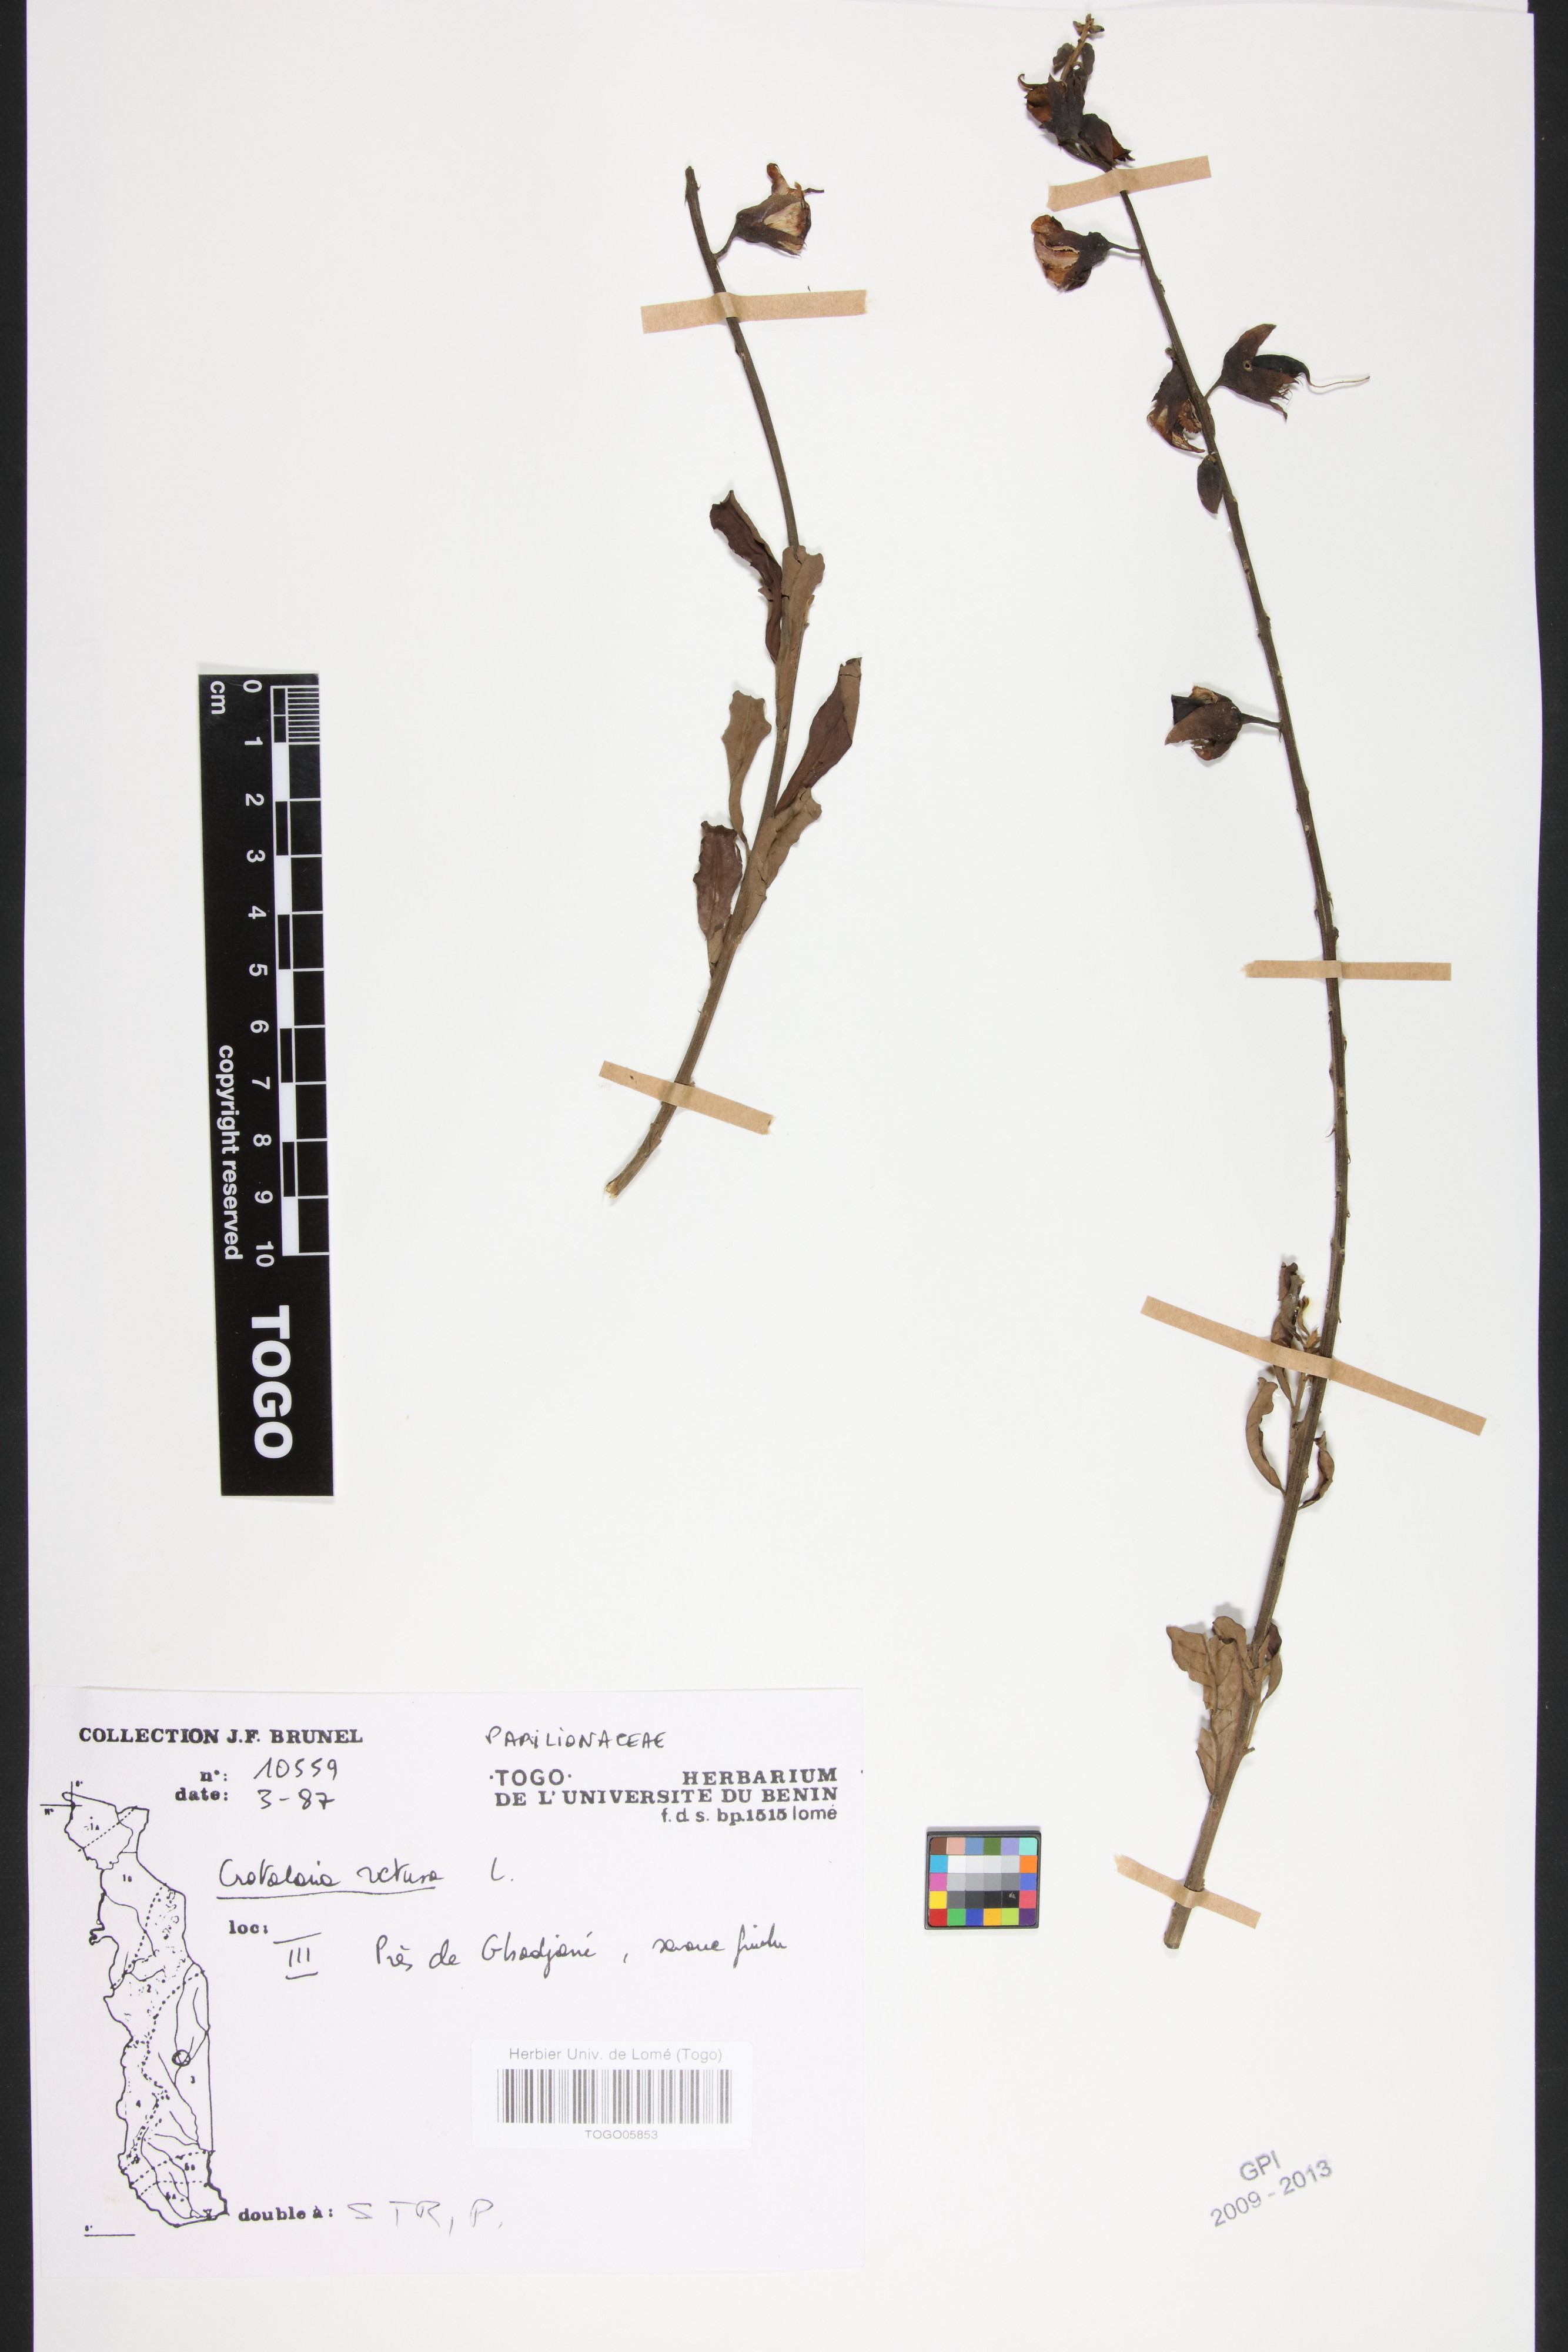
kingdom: Plantae
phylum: Tracheophyta
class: Magnoliopsida
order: Fabales
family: Fabaceae
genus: Crotalaria
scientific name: Crotalaria retusa
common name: Rattleweed
